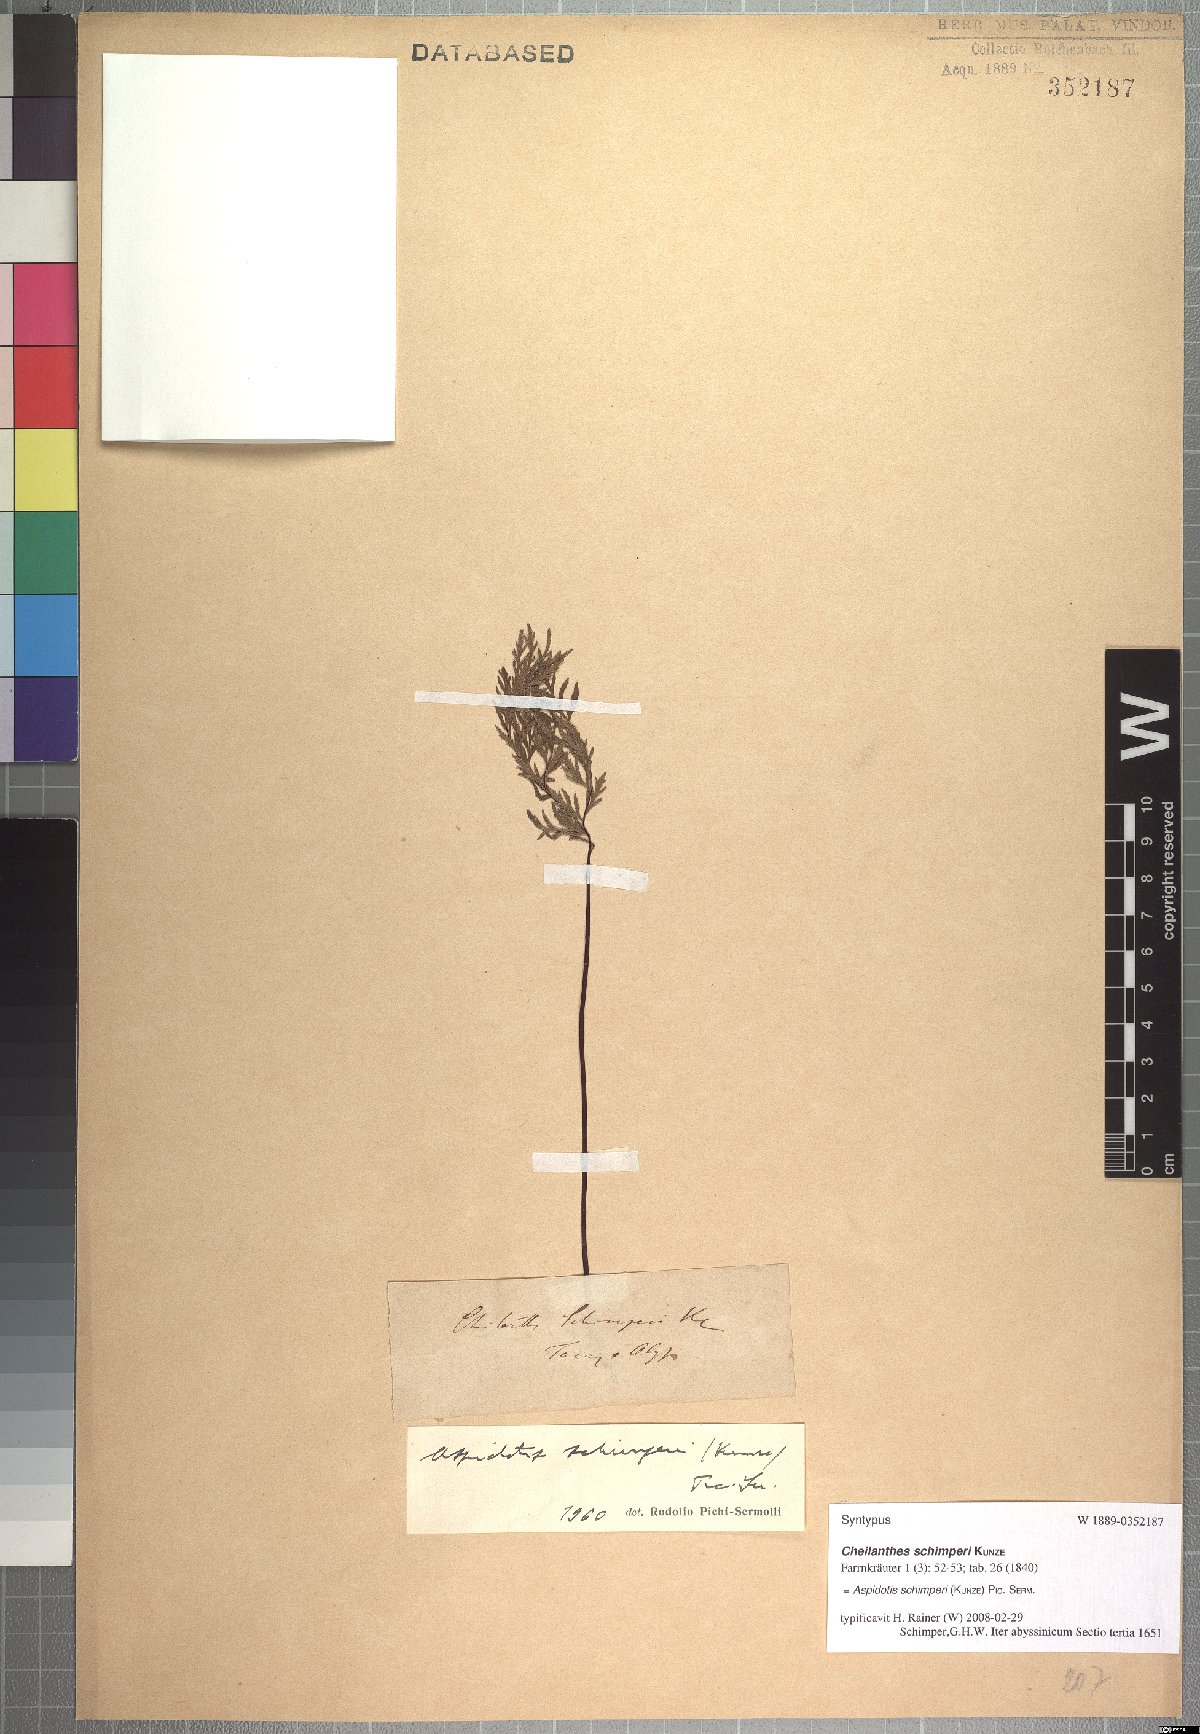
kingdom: Plantae
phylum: Tracheophyta
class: Polypodiopsida
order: Polypodiales
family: Pteridaceae
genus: Cheilanthes
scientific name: Cheilanthes schimperi
